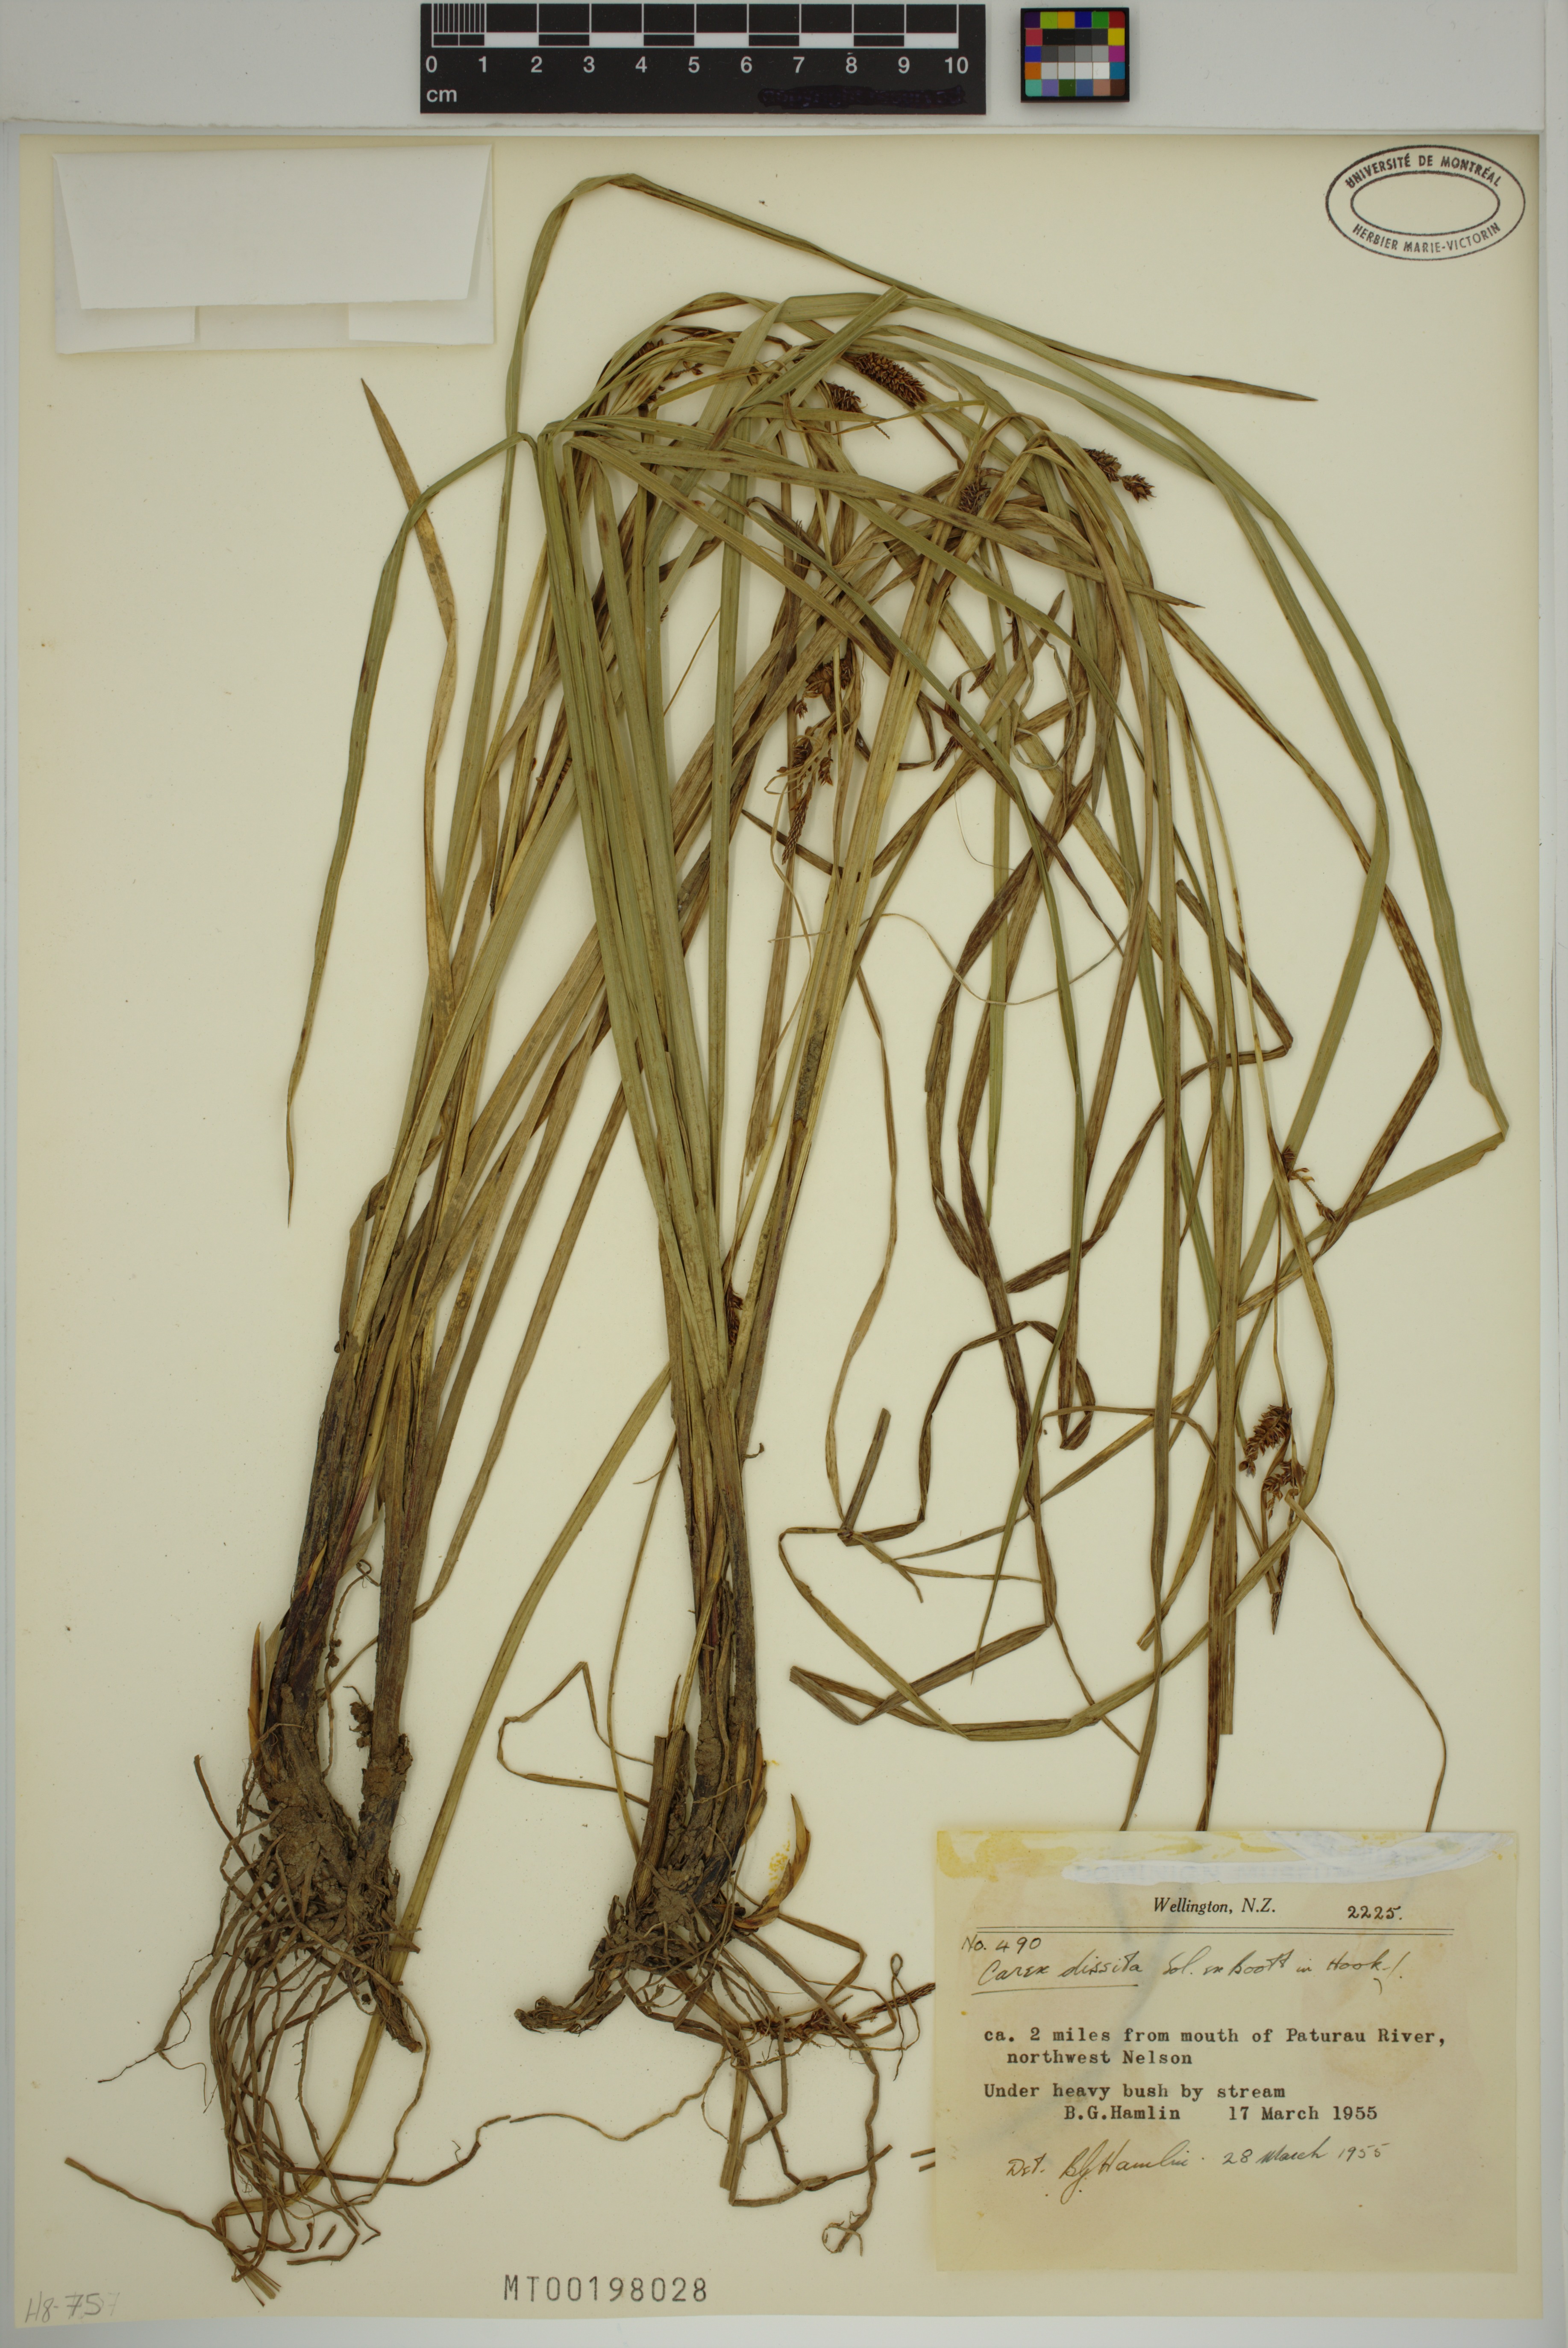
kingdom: Plantae
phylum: Tracheophyta
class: Liliopsida
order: Poales
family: Cyperaceae
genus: Carex
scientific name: Carex dissita
